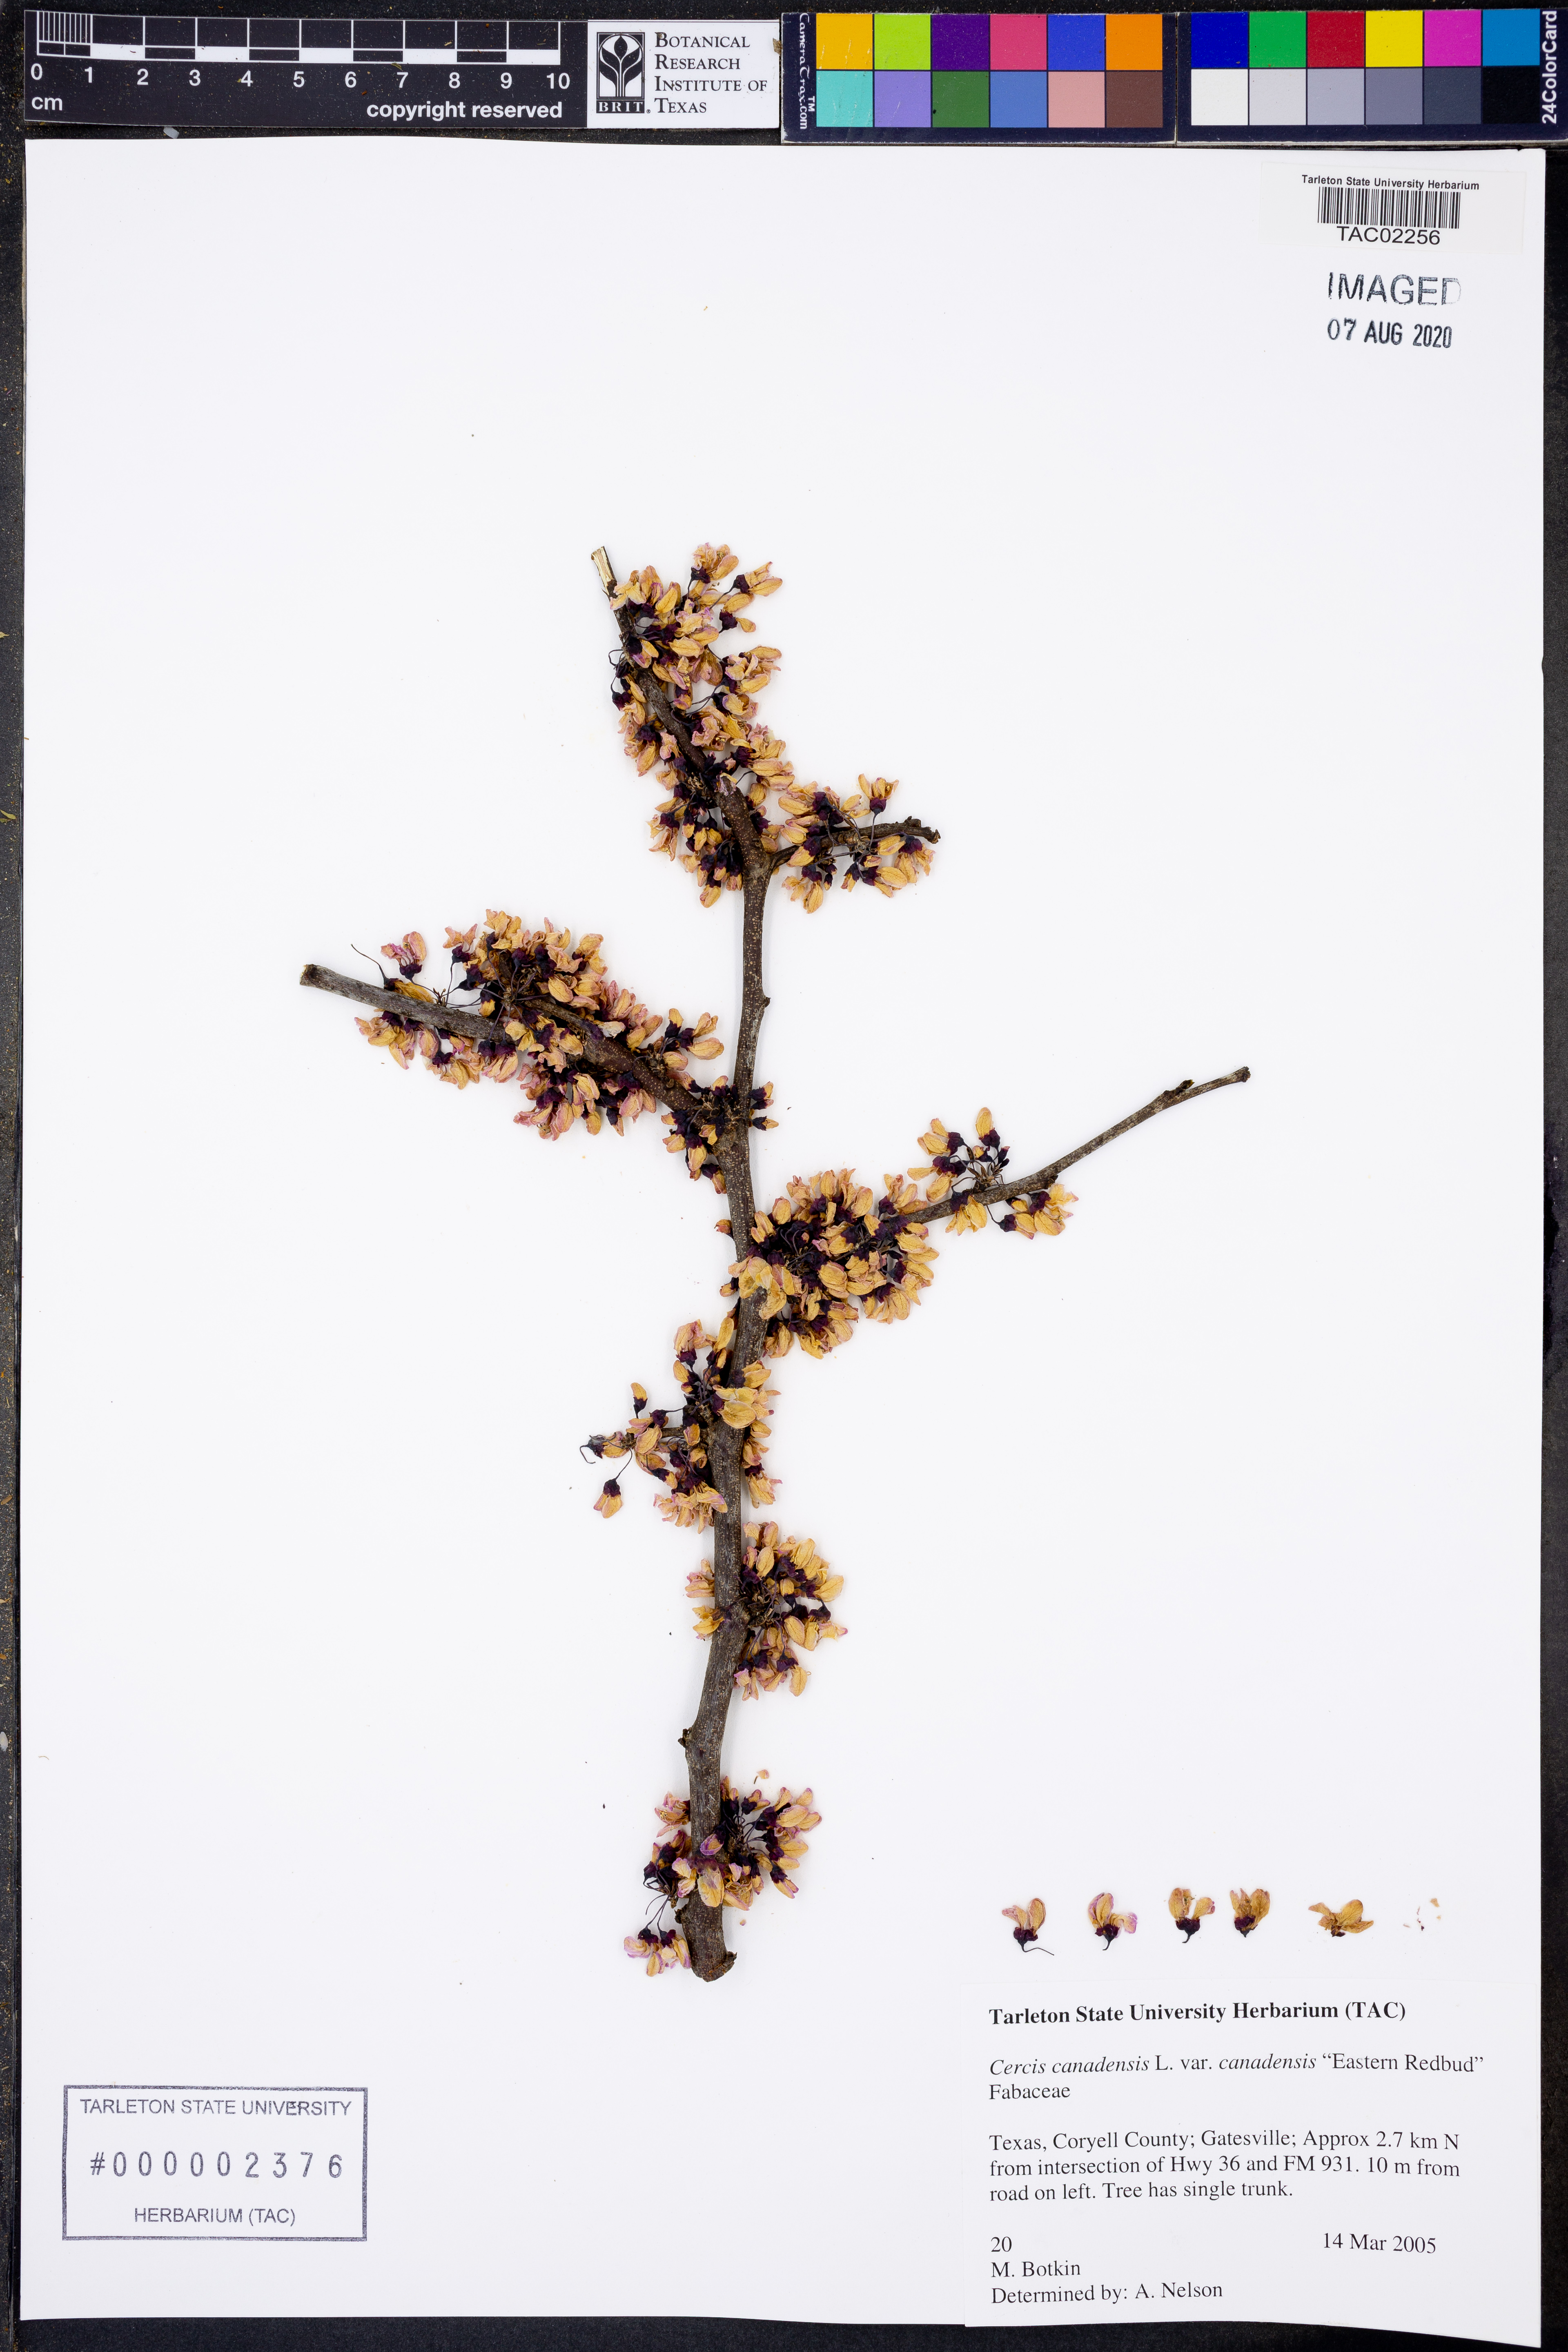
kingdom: Plantae
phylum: Tracheophyta
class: Magnoliopsida
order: Fabales
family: Fabaceae
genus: Cercis
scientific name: Cercis canadensis
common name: Eastern redbud
